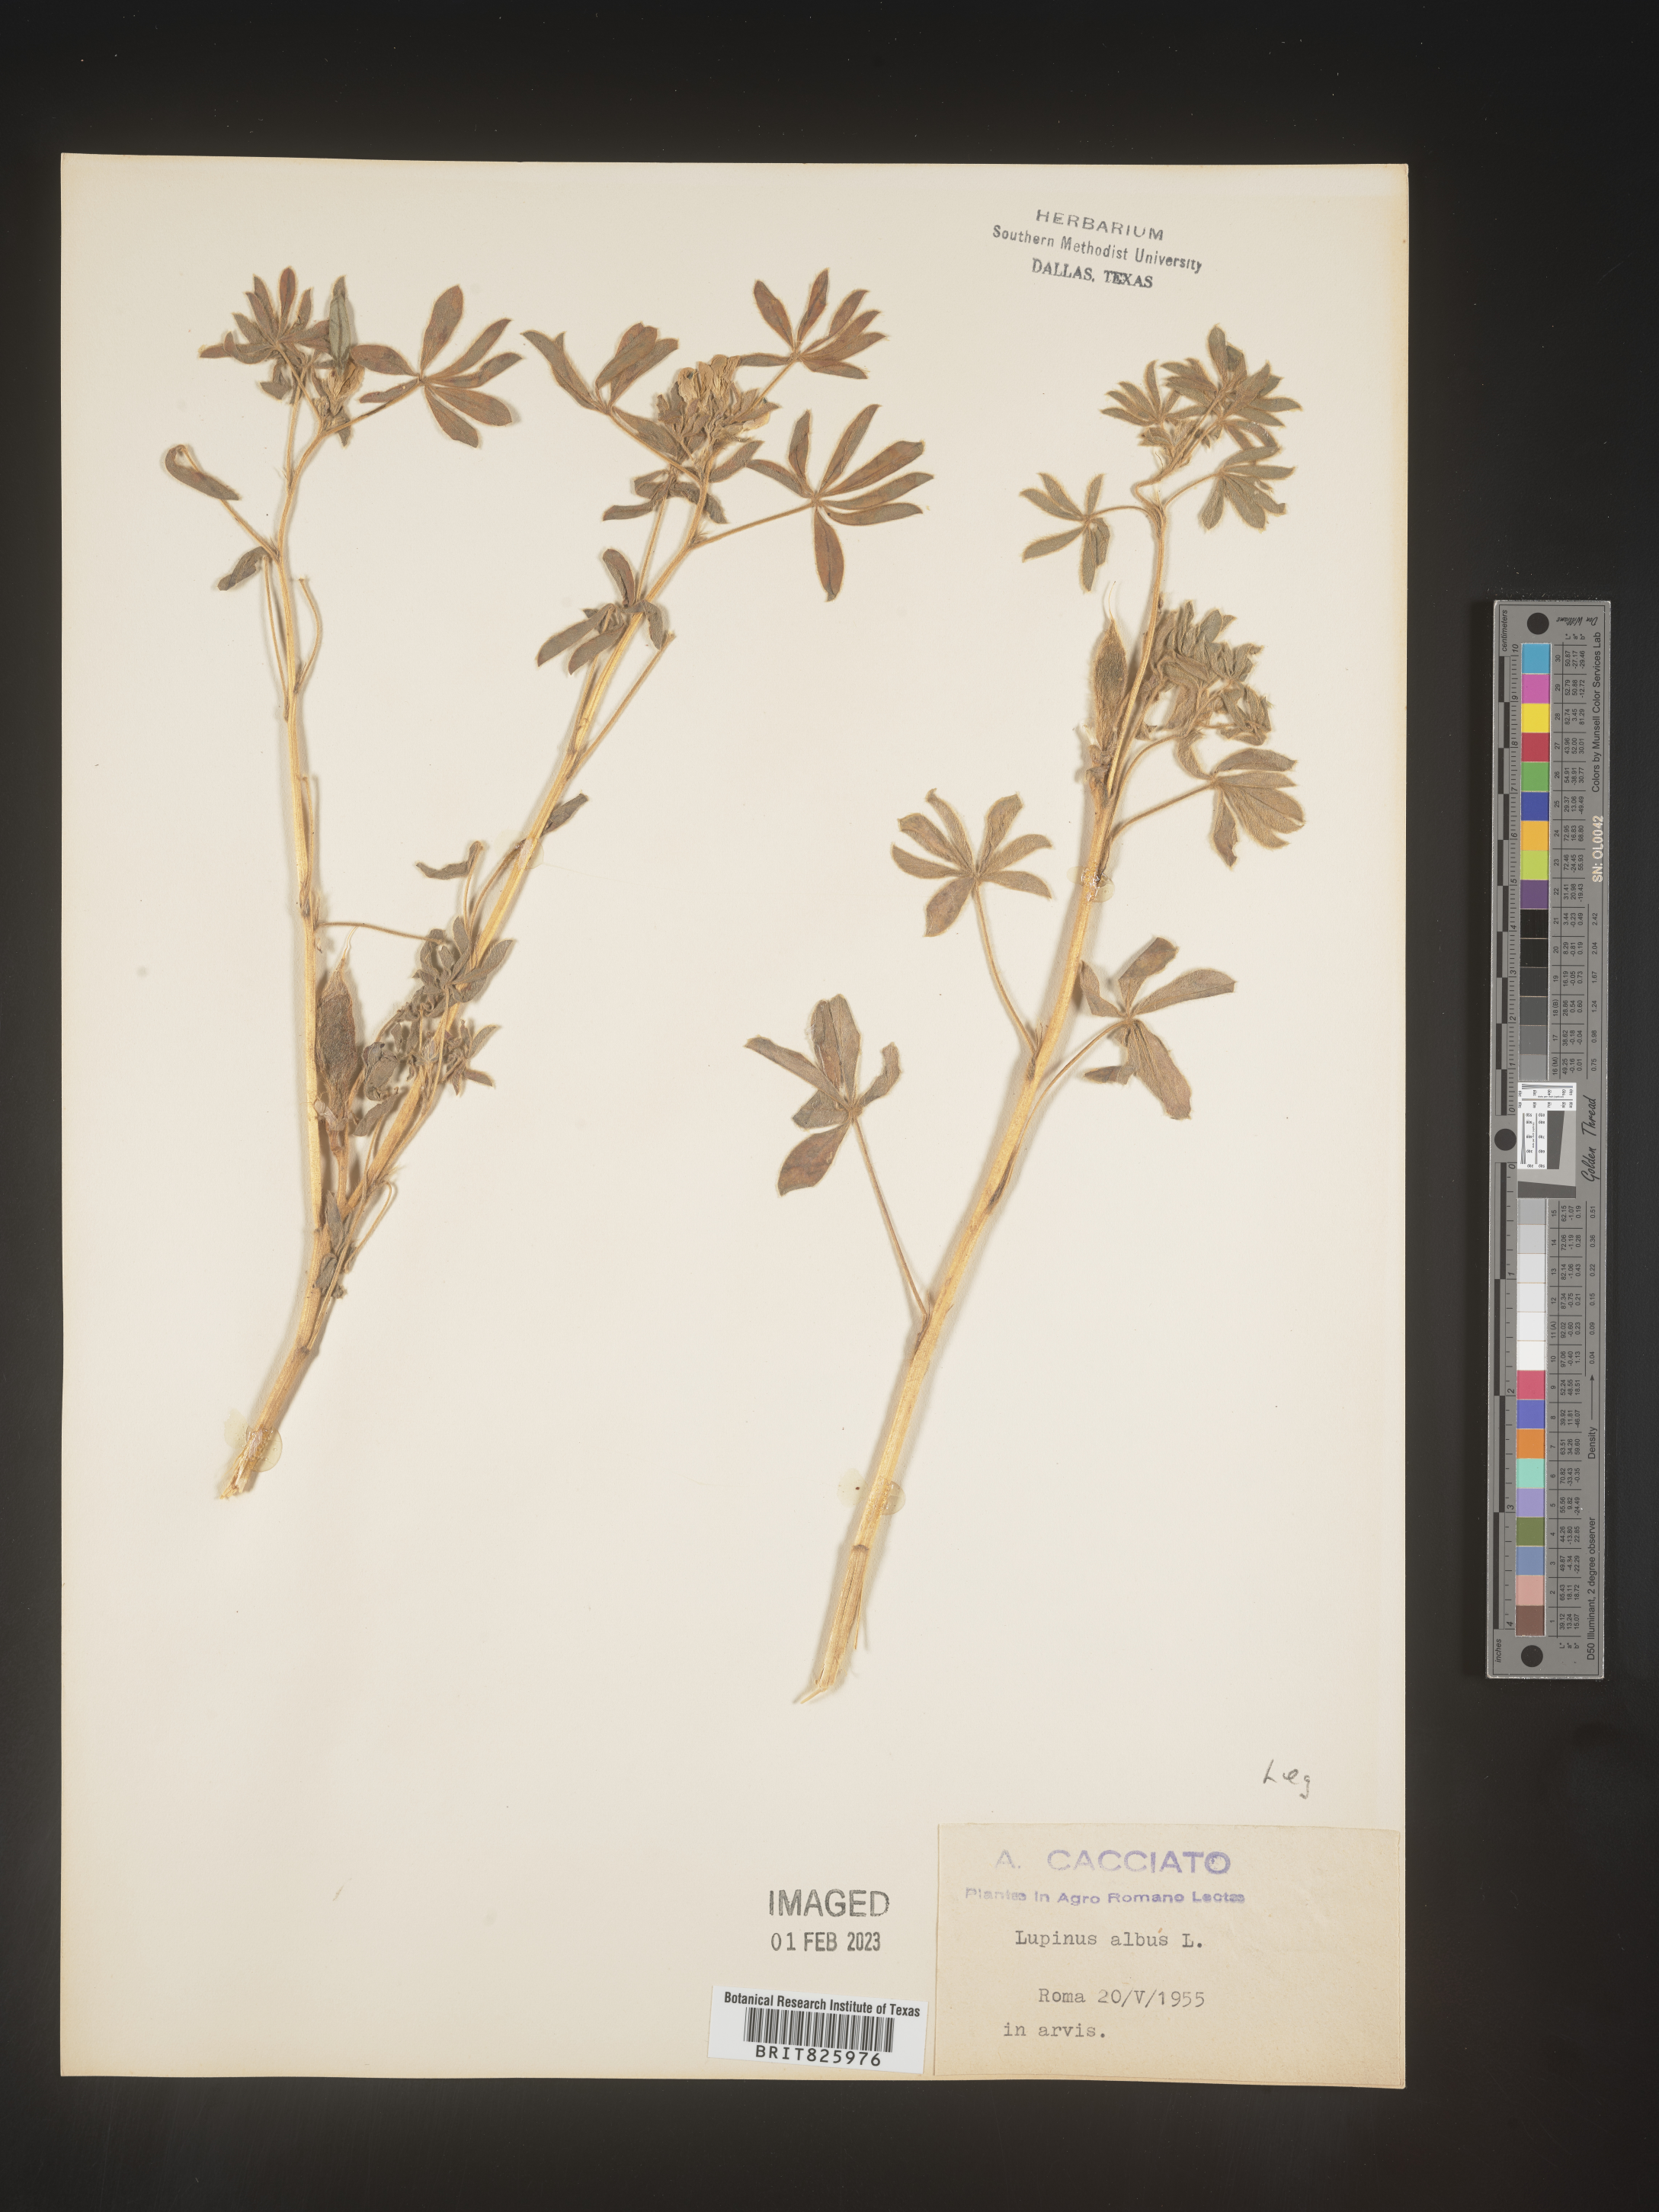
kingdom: Plantae
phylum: Tracheophyta
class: Magnoliopsida
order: Fabales
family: Fabaceae
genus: Lupinus
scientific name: Lupinus
